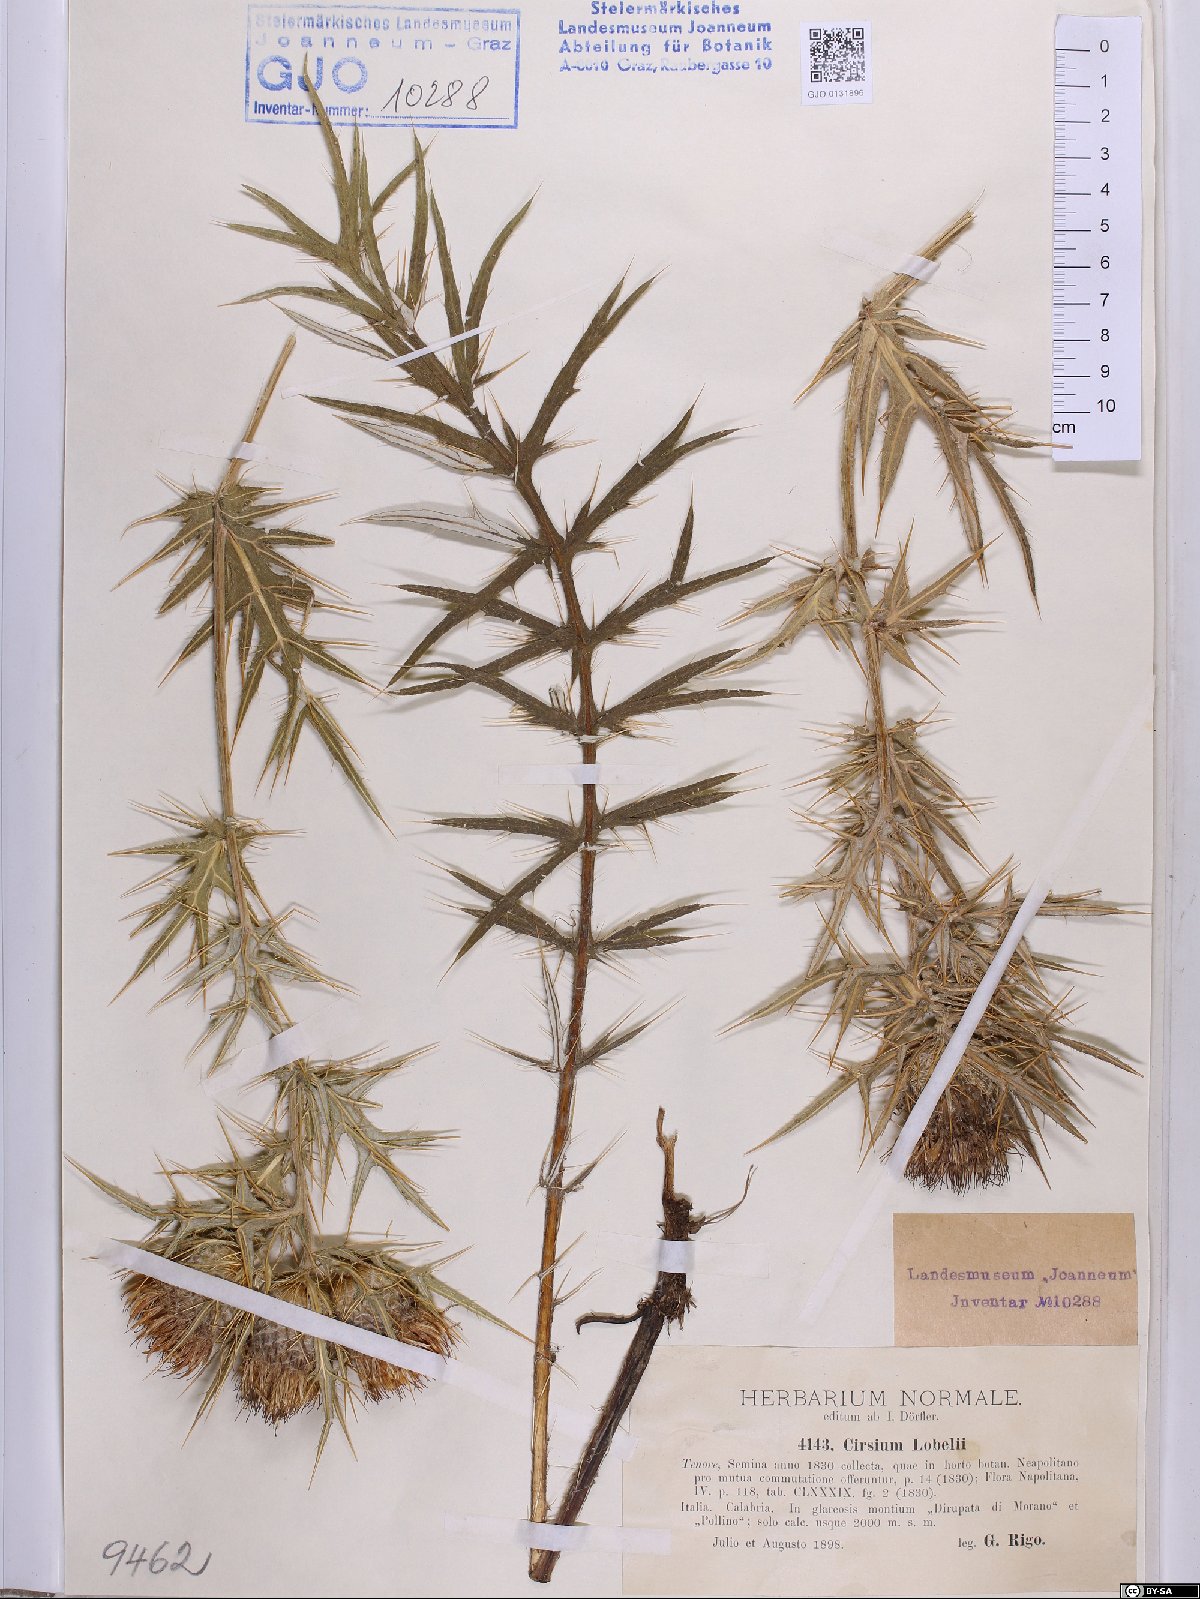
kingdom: Plantae
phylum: Tracheophyta
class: Magnoliopsida
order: Asterales
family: Asteraceae
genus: Lophiolepis
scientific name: Lophiolepis lobelii
